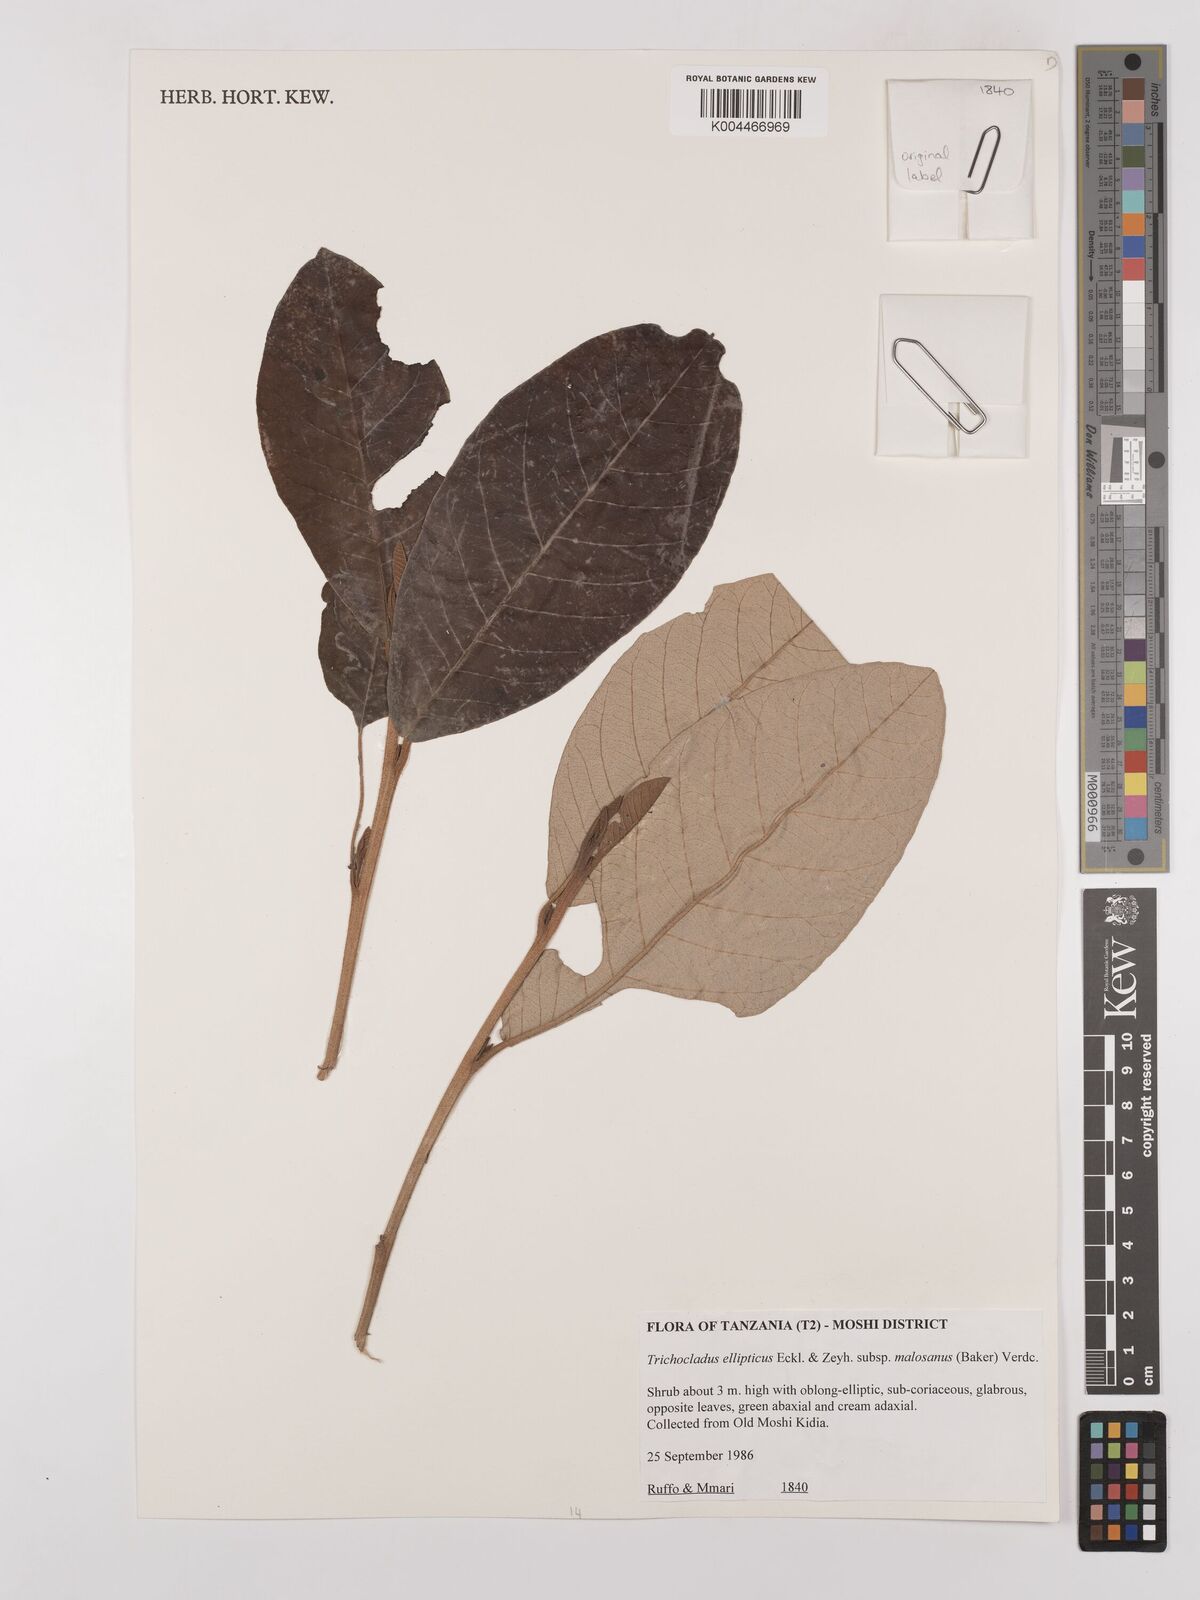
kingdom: Plantae
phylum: Tracheophyta
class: Magnoliopsida
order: Saxifragales
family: Hamamelidaceae
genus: Trichocladus
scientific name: Trichocladus ellipticus
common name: White witch-hazel
